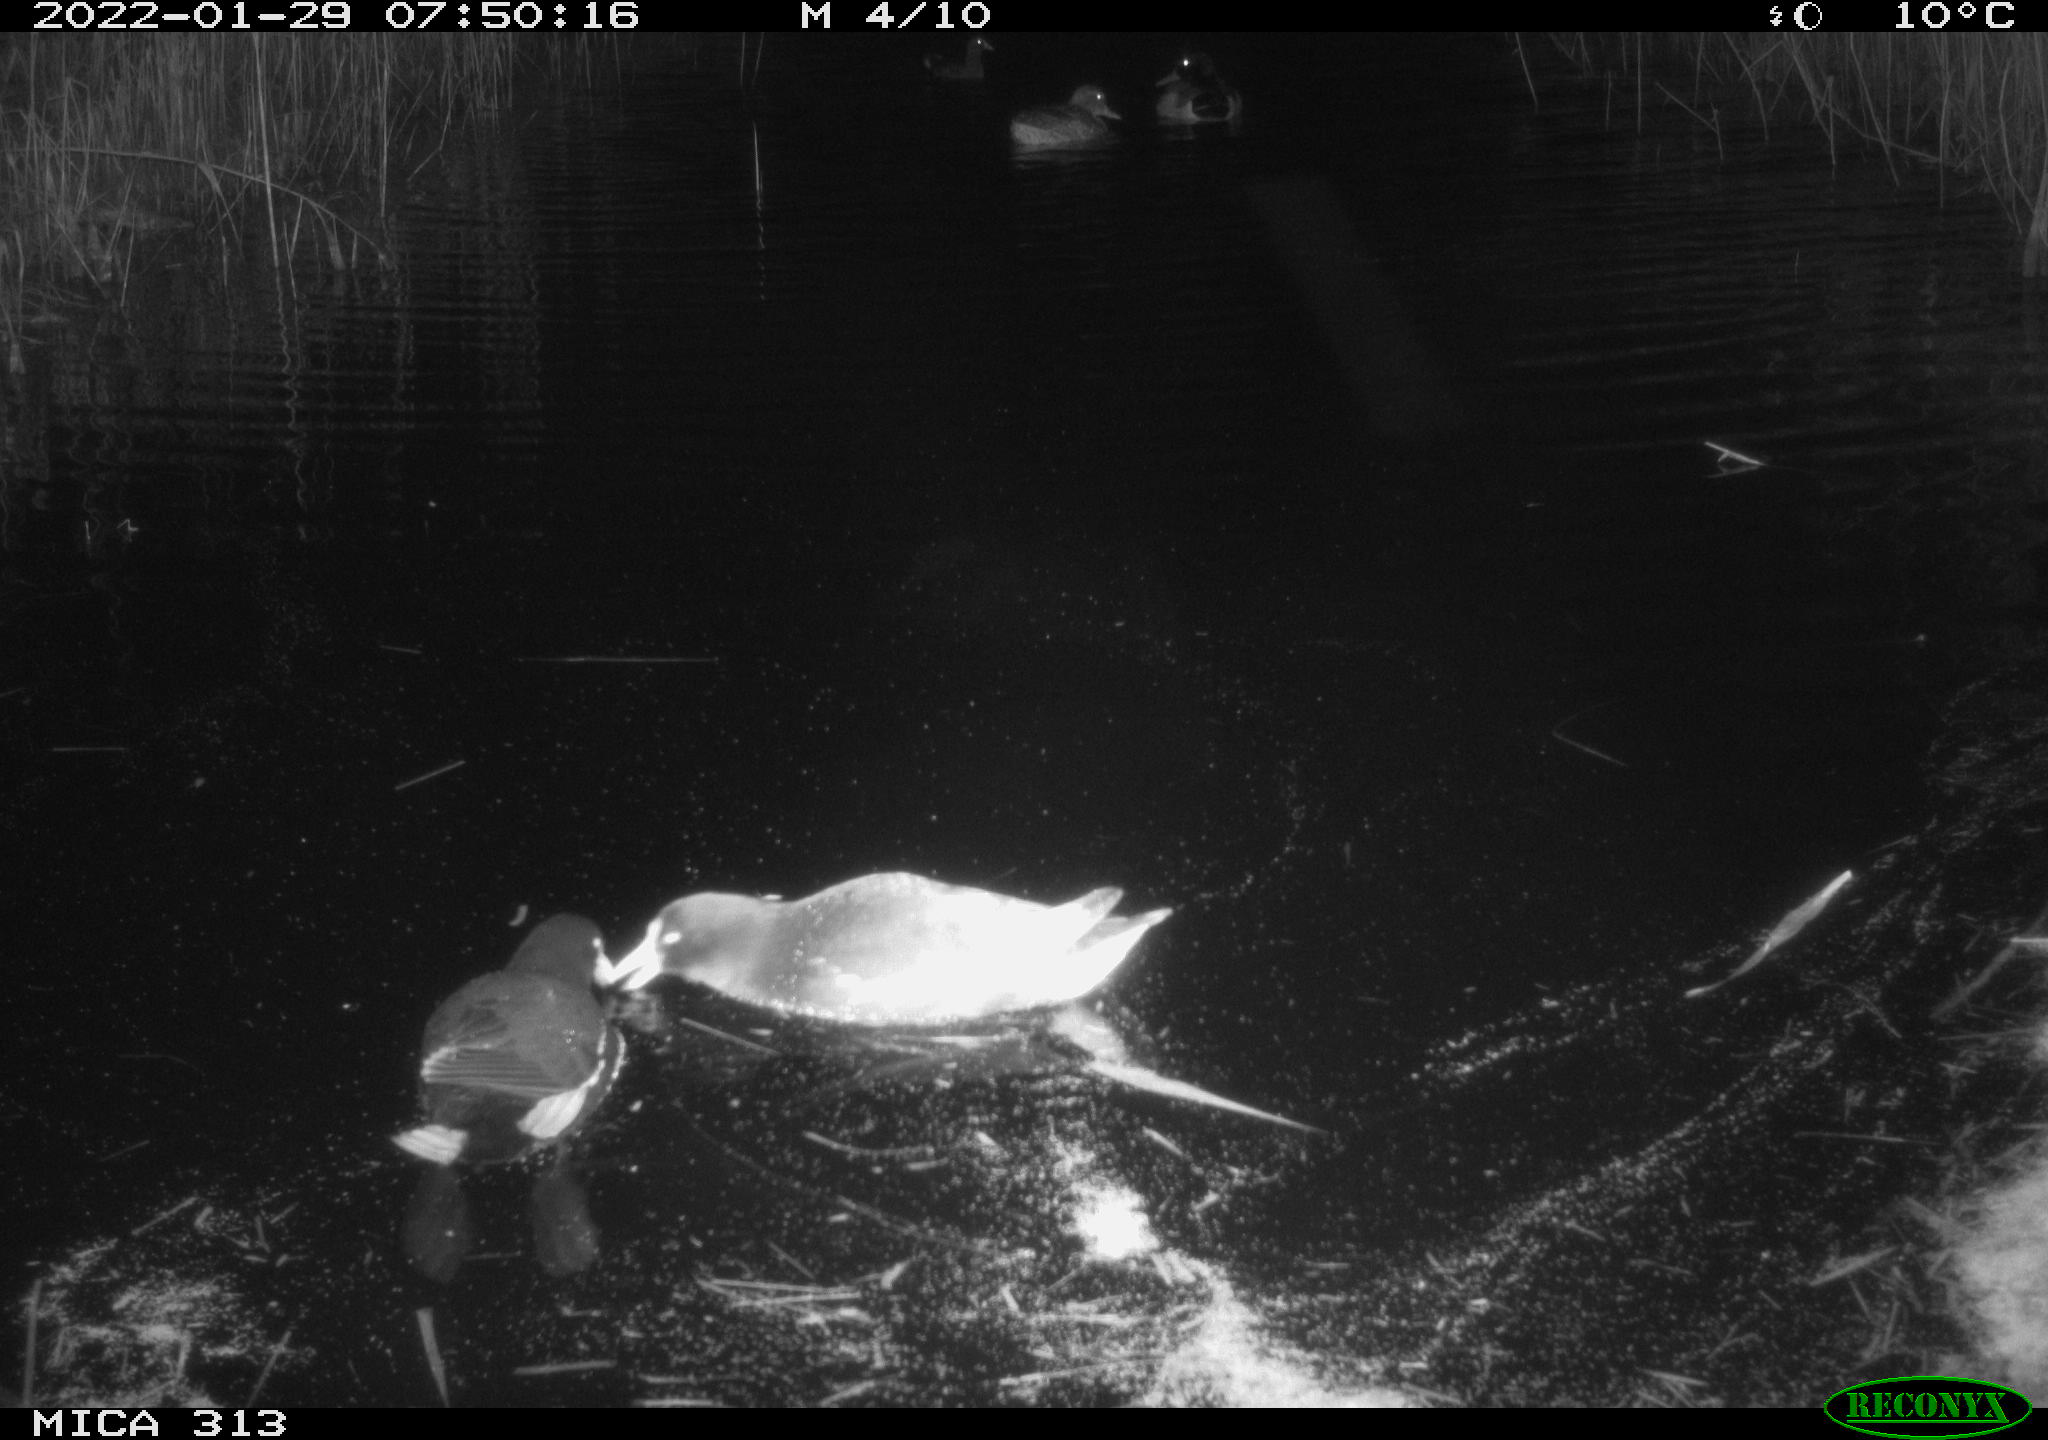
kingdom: Animalia
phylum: Chordata
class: Aves
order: Gruiformes
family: Rallidae
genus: Fulica
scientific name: Fulica atra
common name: Eurasian coot
